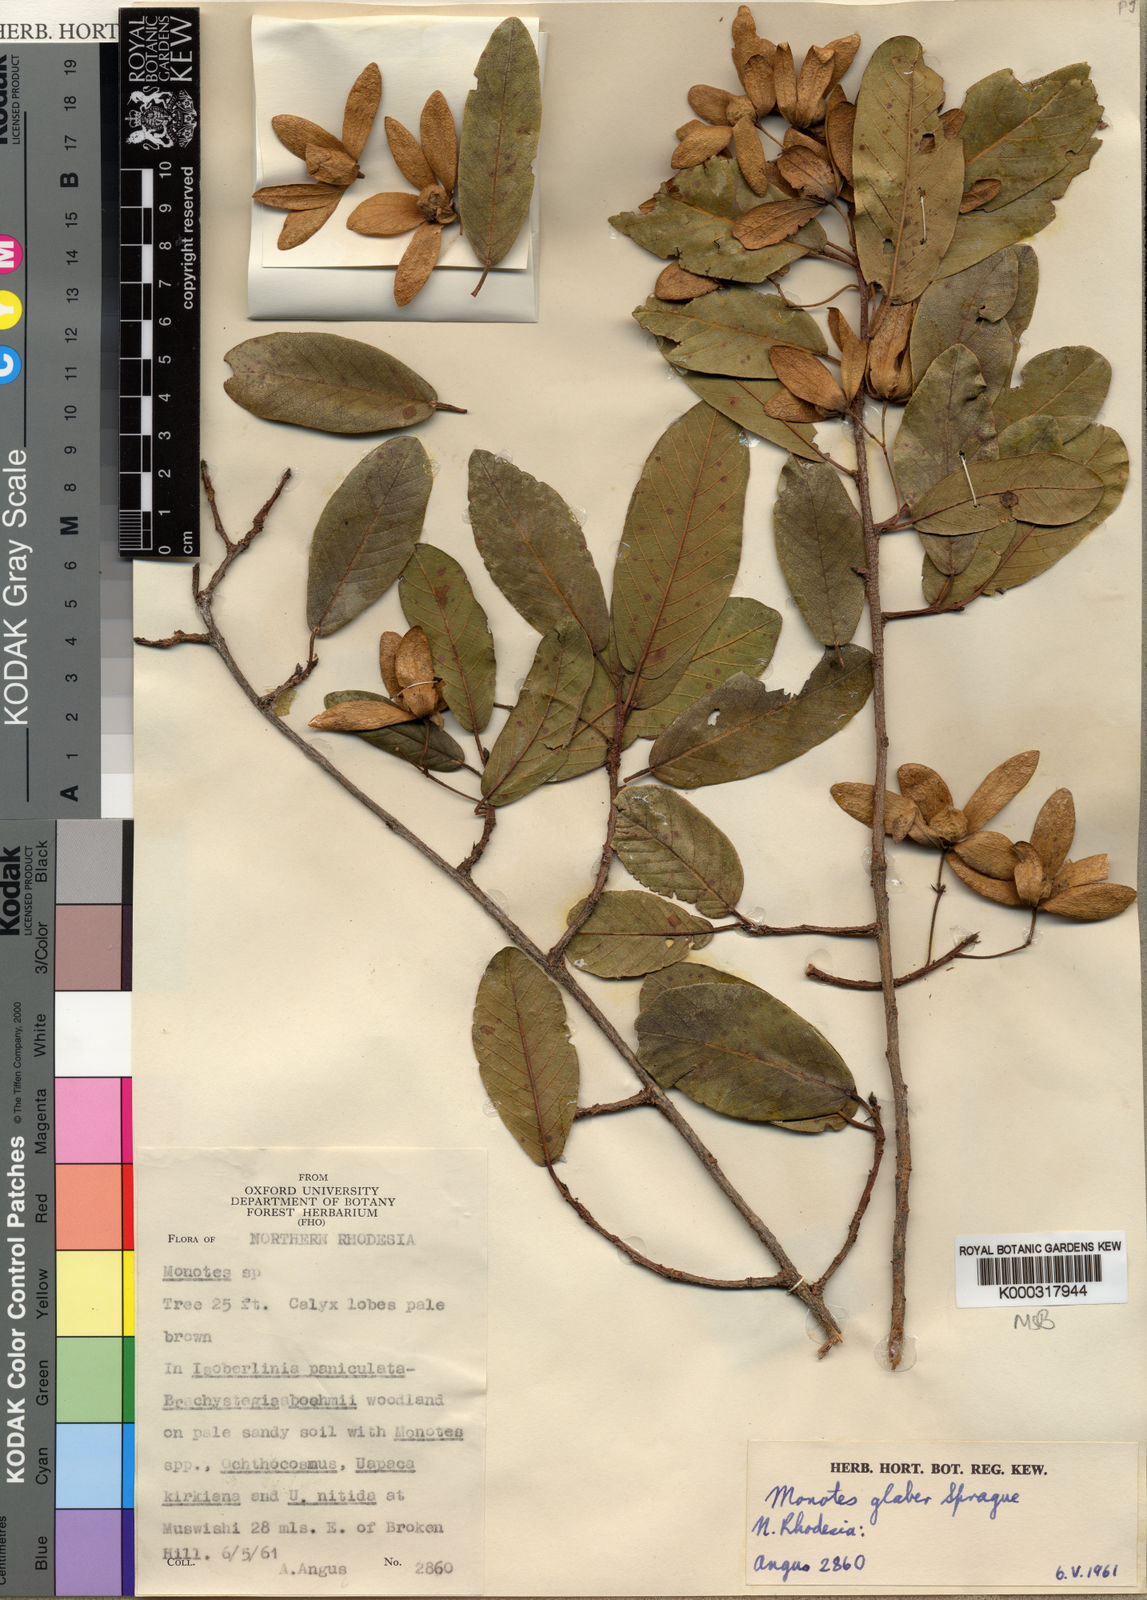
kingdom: Plantae
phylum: Tracheophyta
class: Magnoliopsida
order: Malvales
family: Dipterocarpaceae
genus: Monotes
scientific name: Monotes glaber
